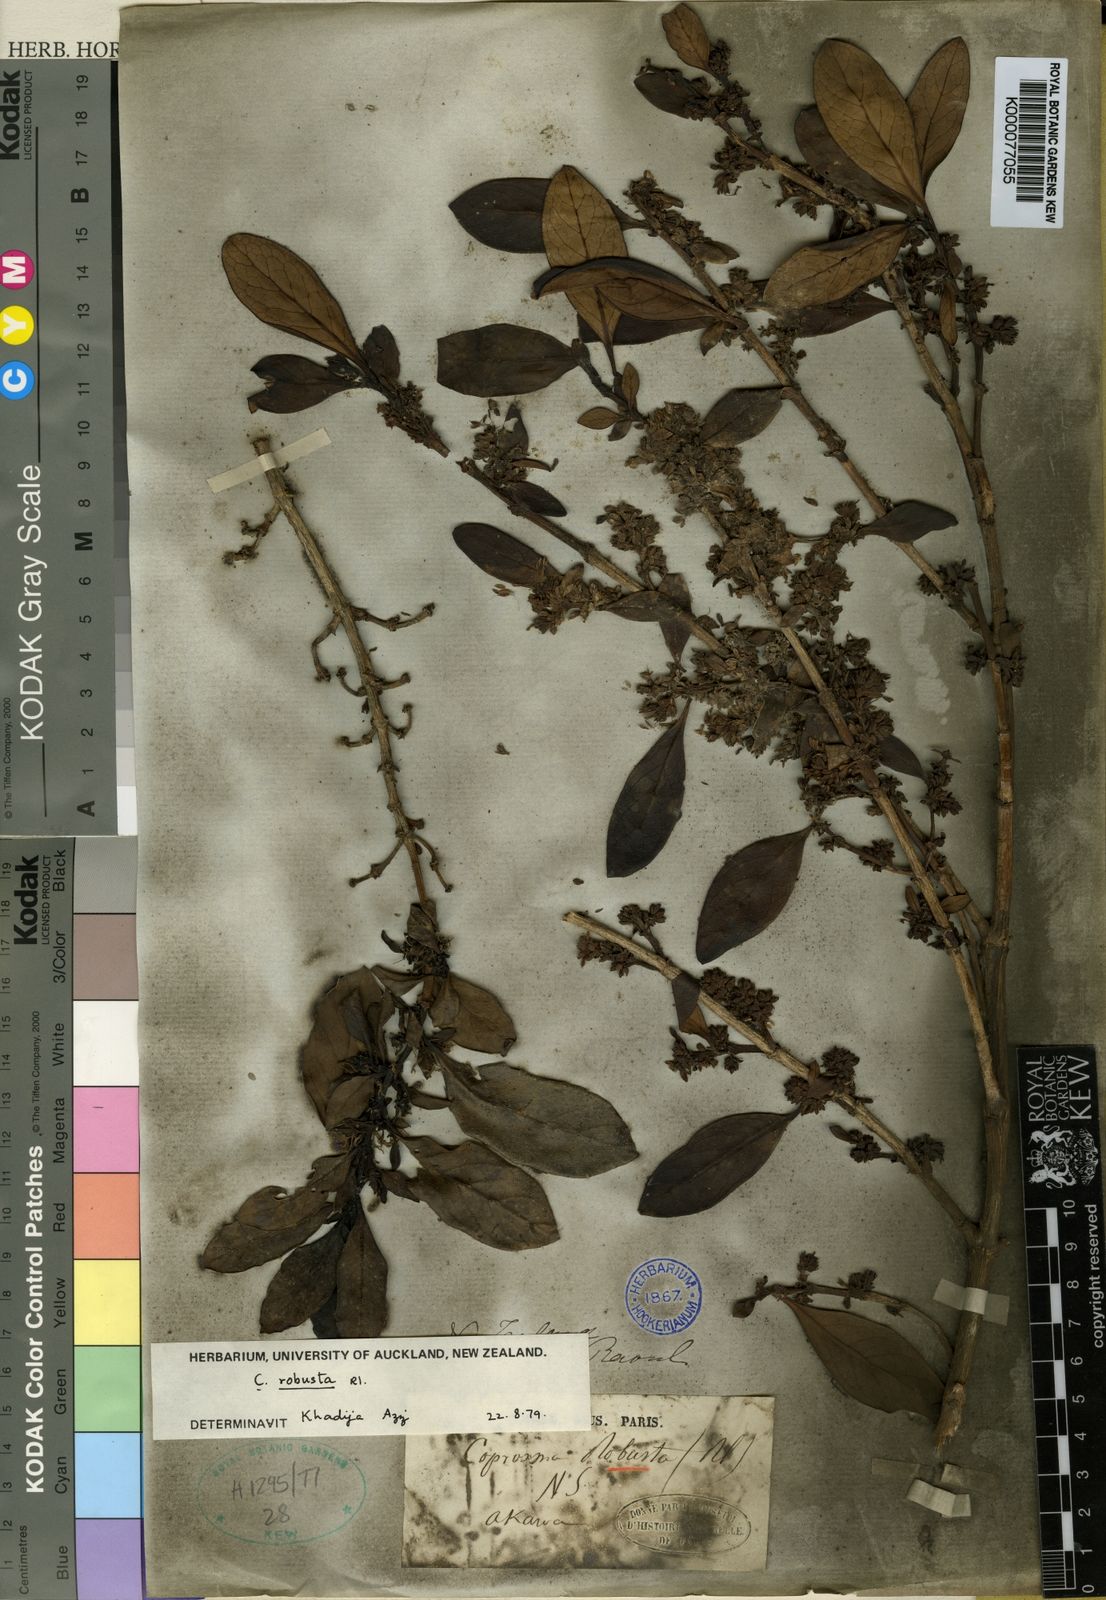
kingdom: Plantae
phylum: Tracheophyta
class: Magnoliopsida
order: Gentianales
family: Rubiaceae
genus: Coprosma
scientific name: Coprosma robusta
